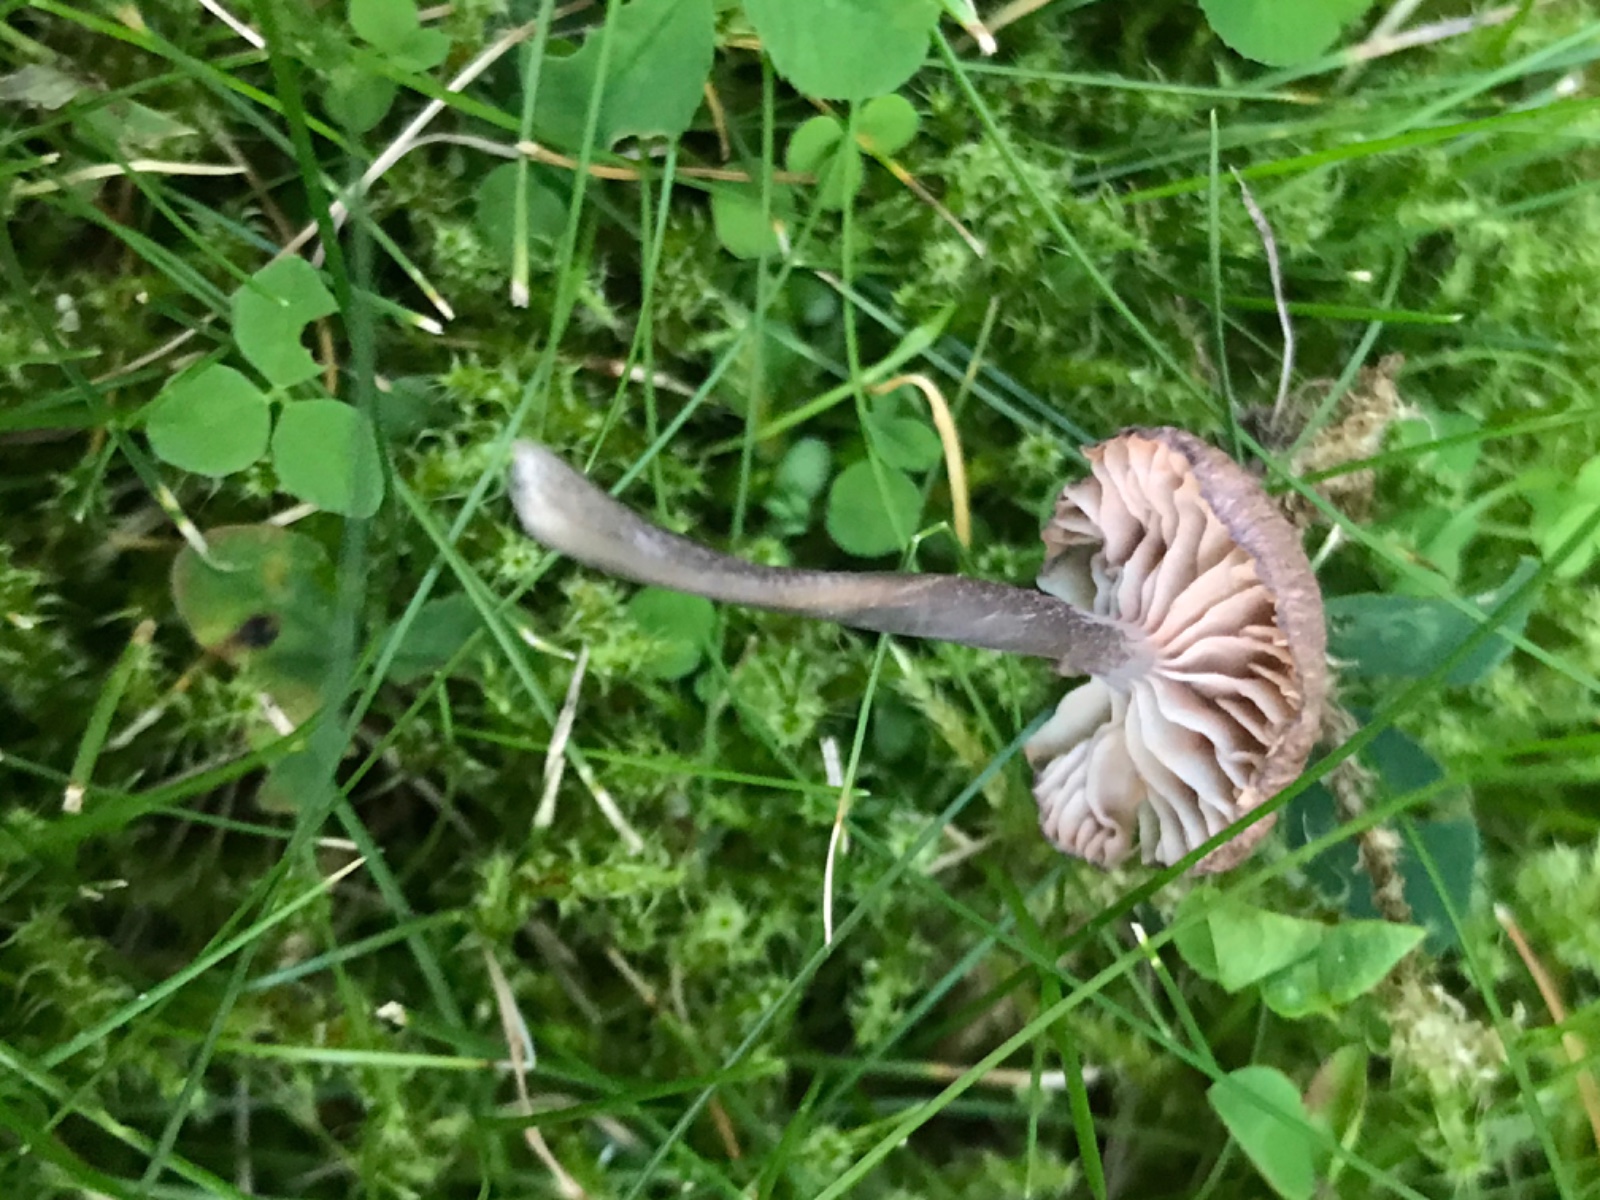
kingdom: Fungi
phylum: Basidiomycota
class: Agaricomycetes
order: Agaricales
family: Entolomataceae
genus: Entoloma
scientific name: Entoloma
